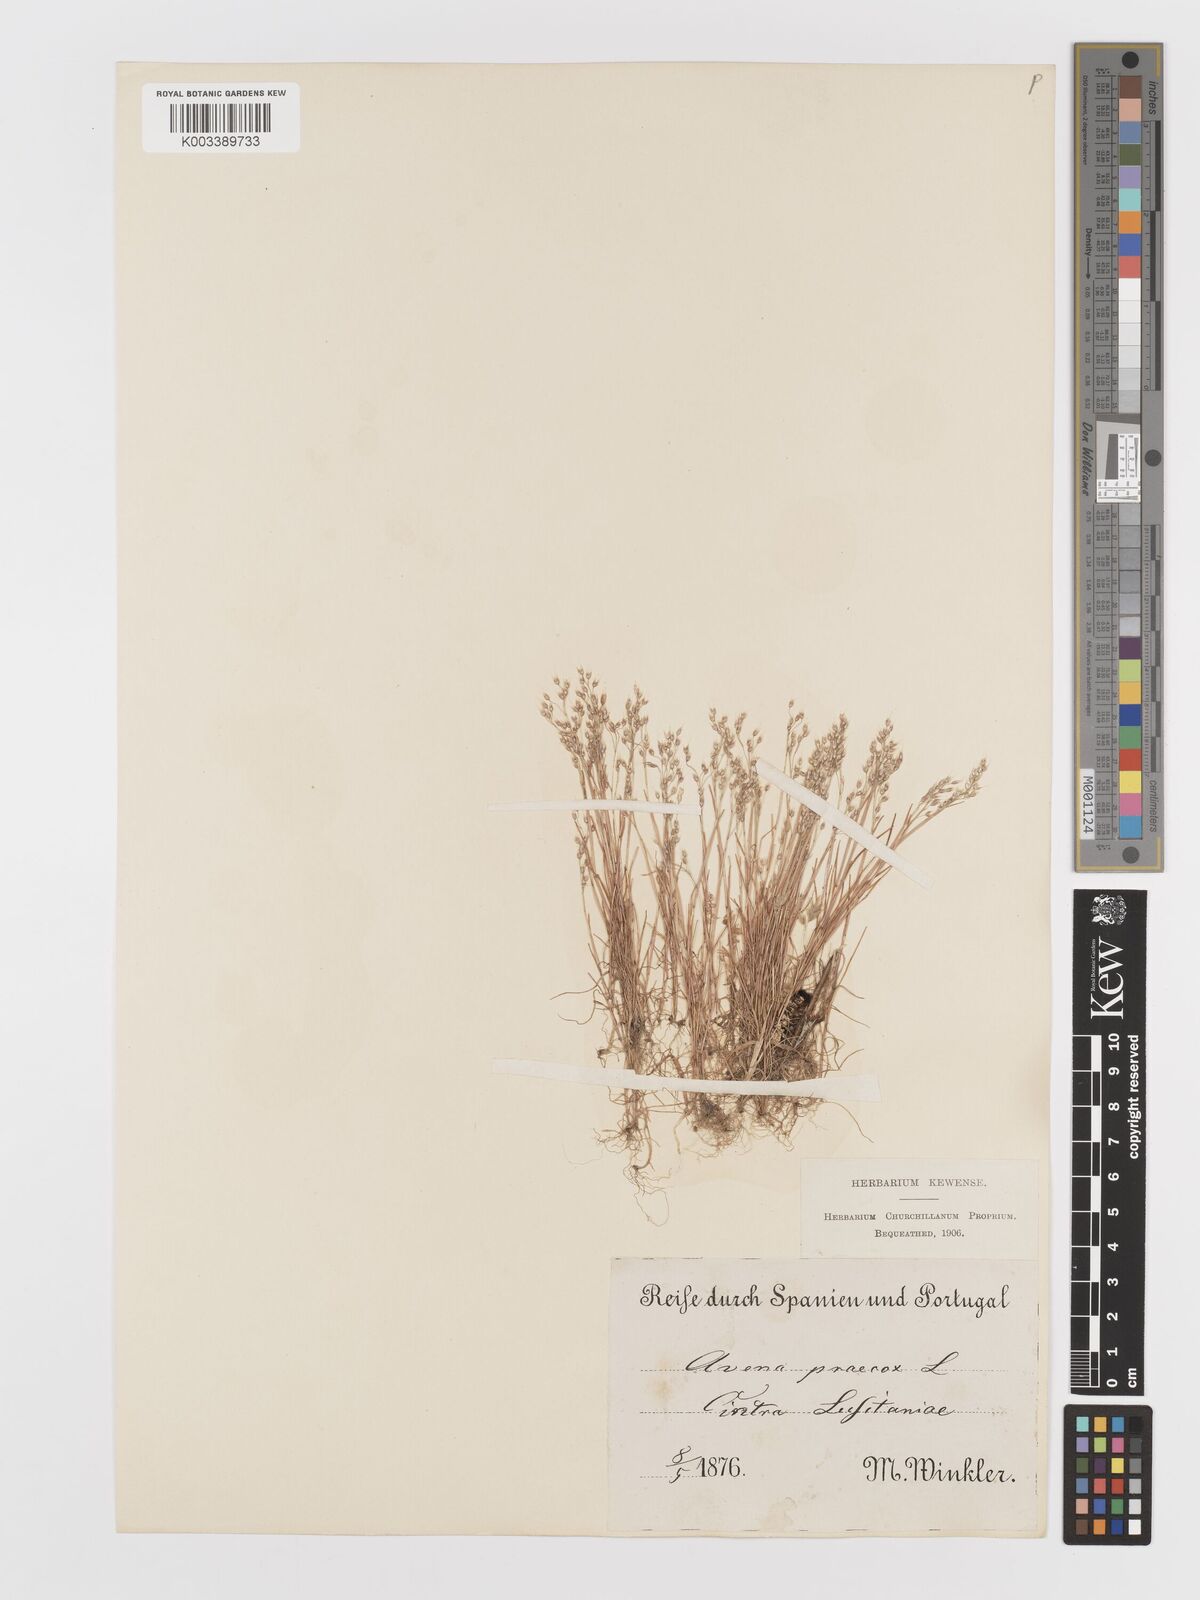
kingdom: Plantae
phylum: Tracheophyta
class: Liliopsida
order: Poales
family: Poaceae
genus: Aira
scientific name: Aira caryophyllea
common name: Silver hairgrass
